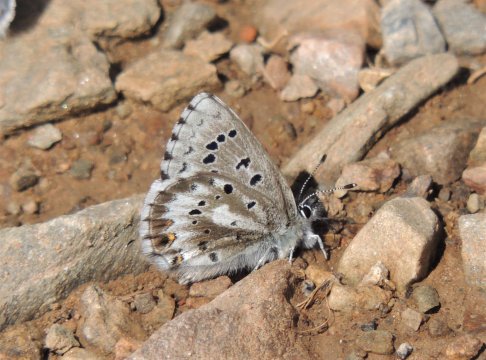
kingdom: Animalia
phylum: Arthropoda
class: Insecta
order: Lepidoptera
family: Lycaenidae
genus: Glaucopsyche
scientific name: Glaucopsyche piasus
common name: Arrowhead Blue
